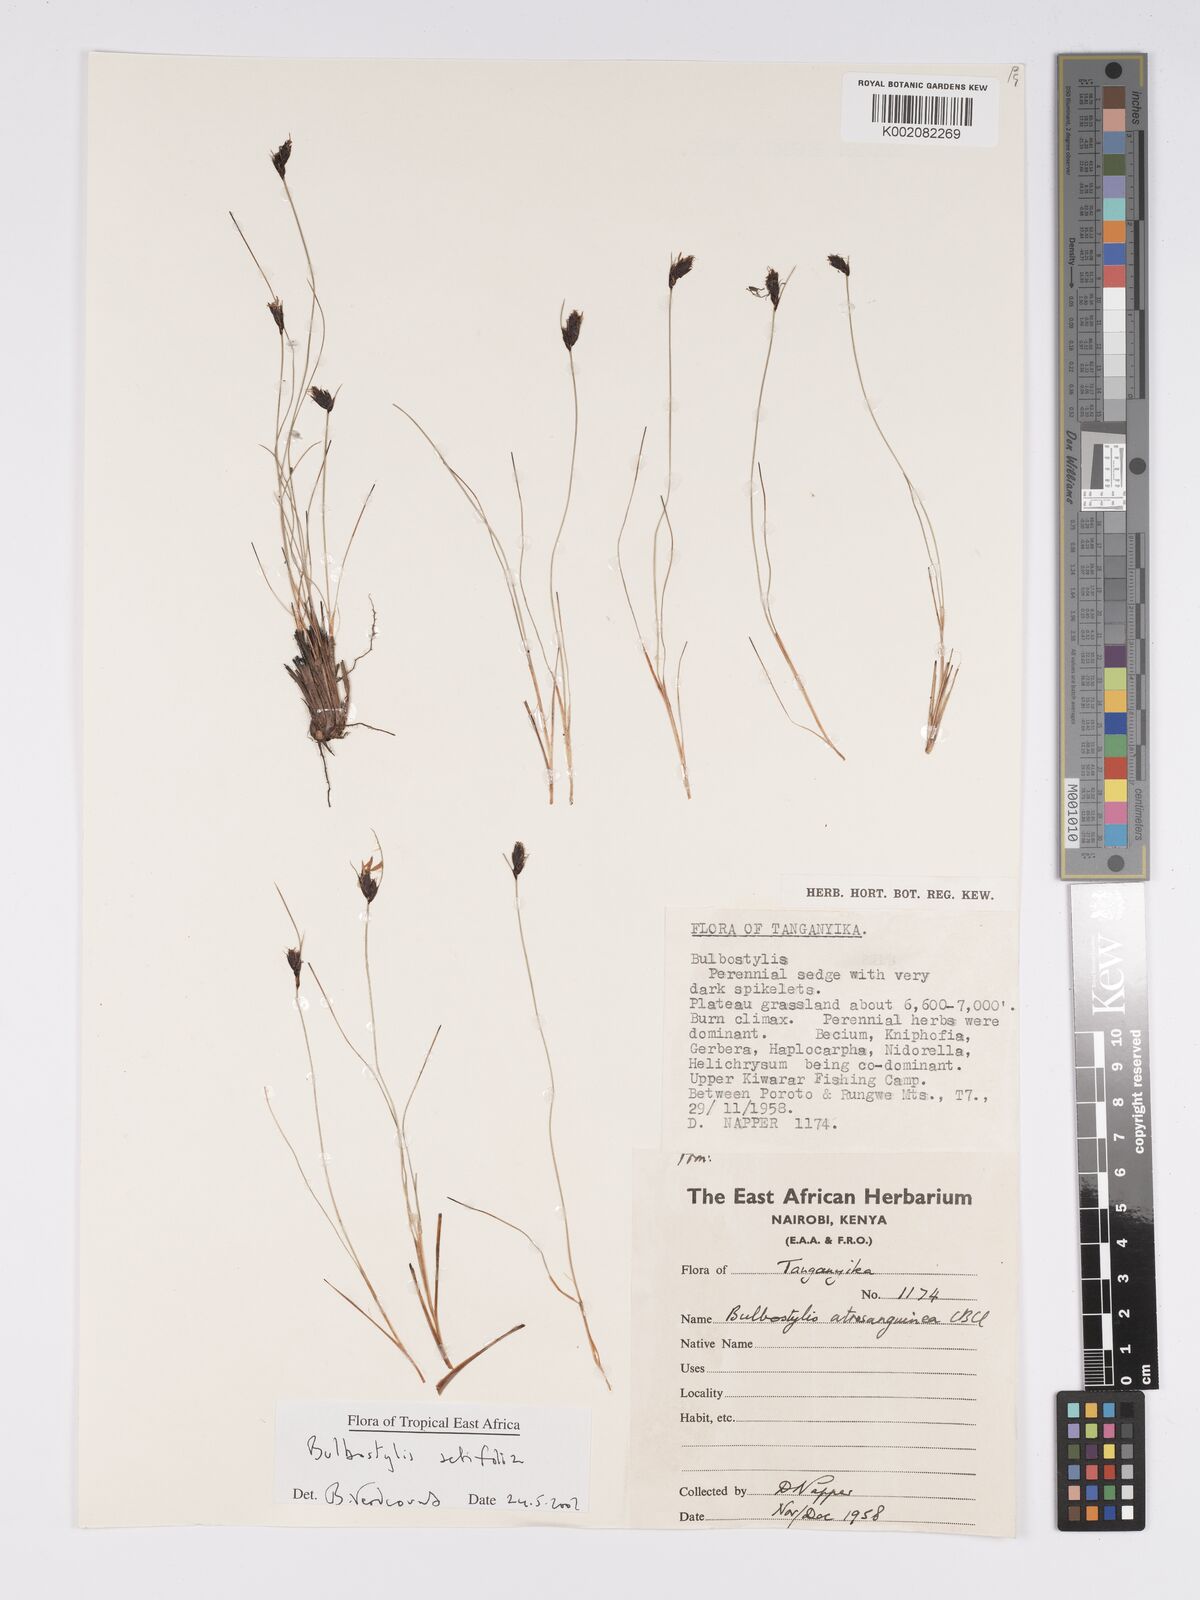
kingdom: Plantae
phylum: Tracheophyta
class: Liliopsida
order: Poales
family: Cyperaceae
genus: Bulbostylis
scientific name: Bulbostylis atrosanguinea
